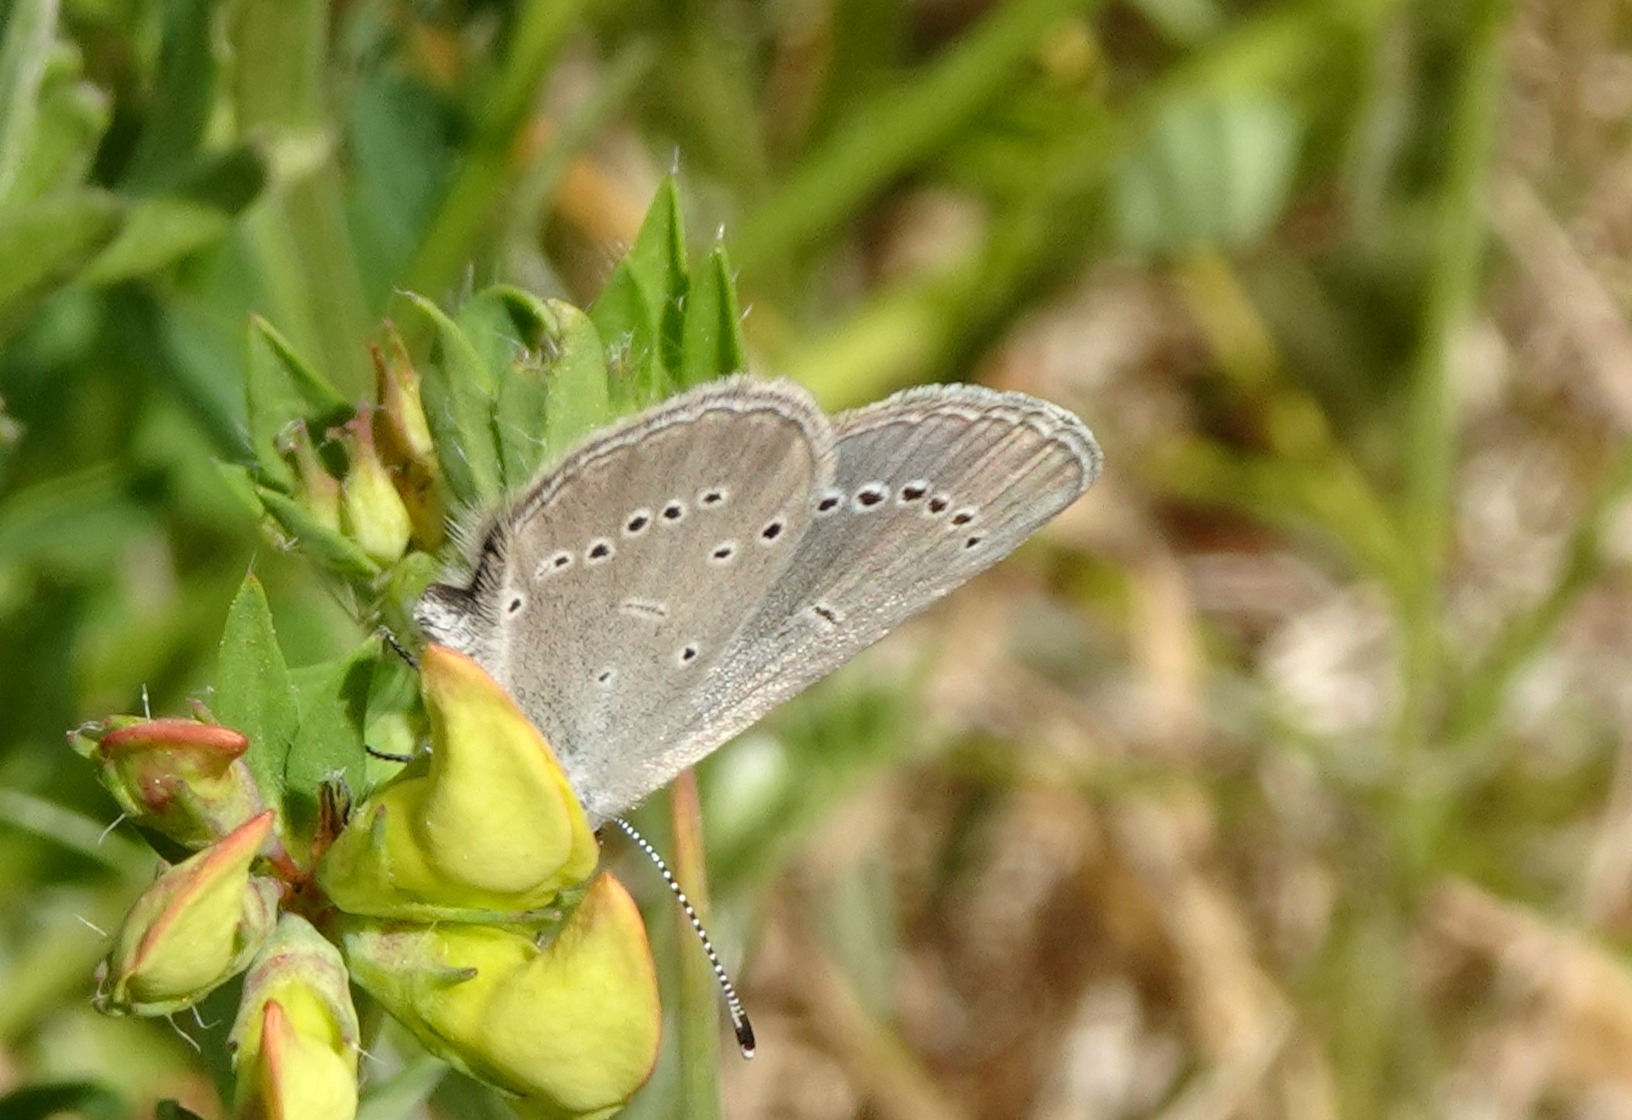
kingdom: Animalia
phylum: Arthropoda
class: Insecta
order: Lepidoptera
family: Lycaenidae
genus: Cupido
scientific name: Cupido minimus
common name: Dværgblåfugl
